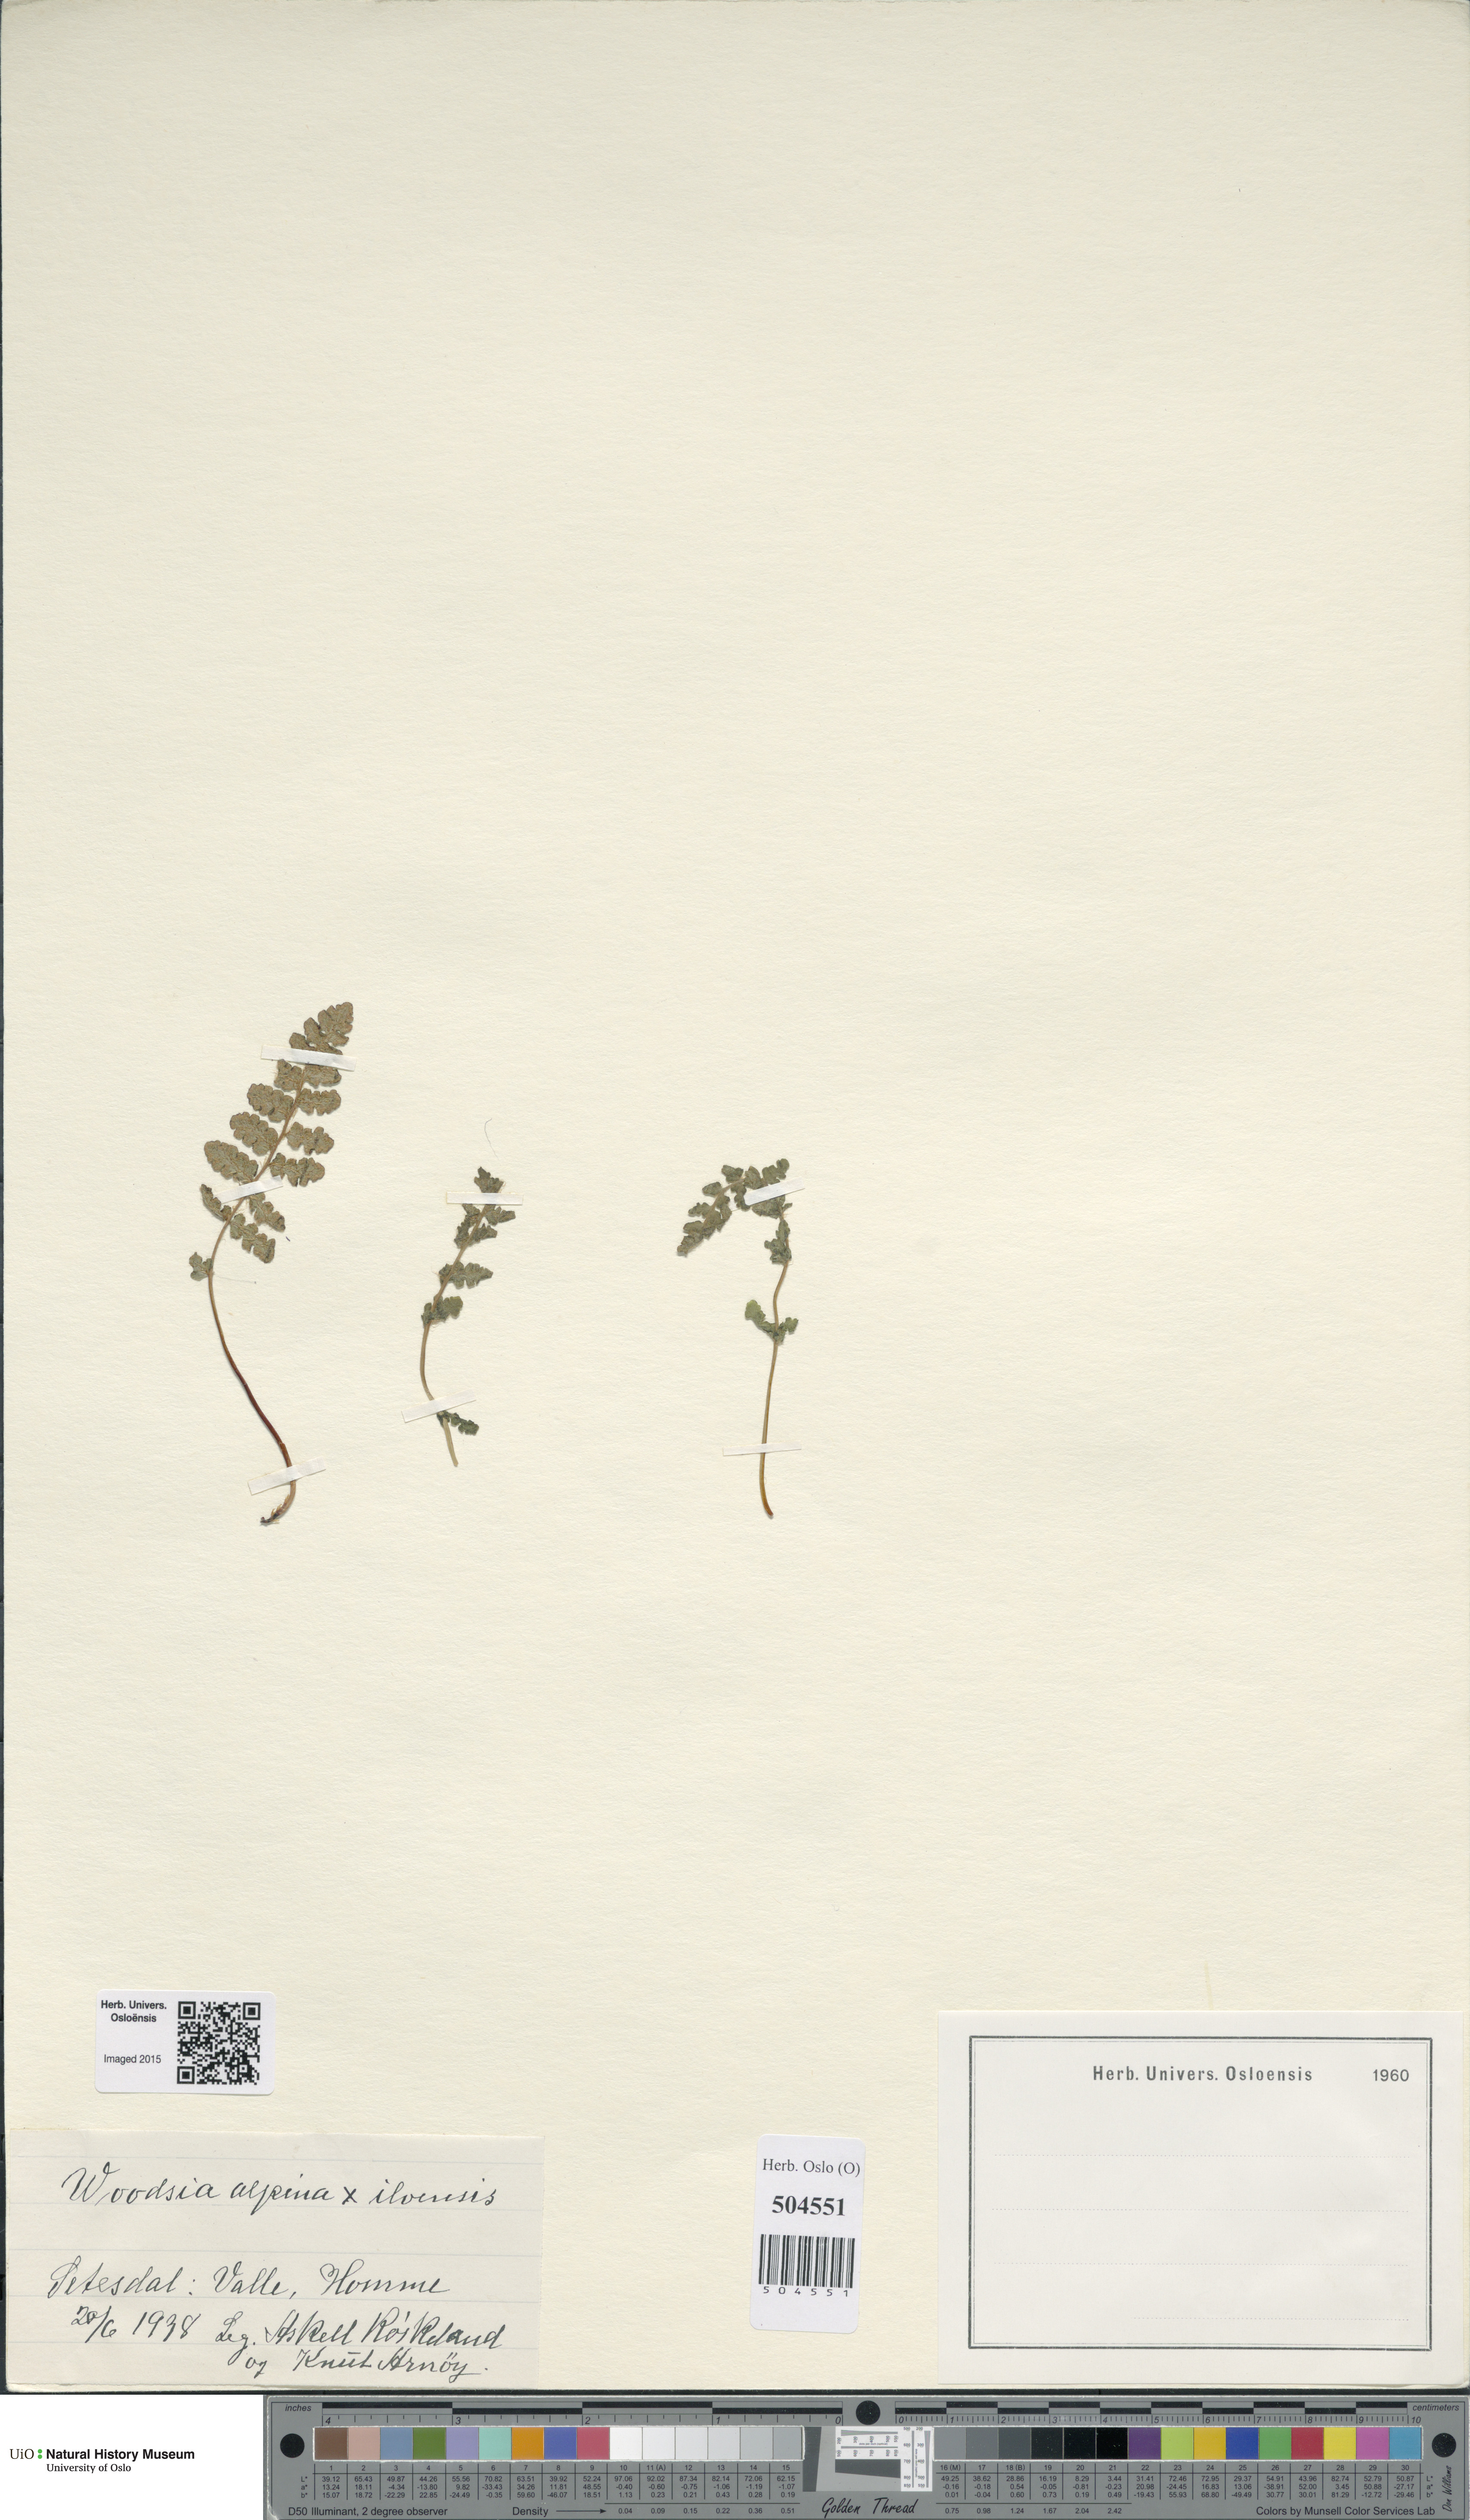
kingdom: Plantae
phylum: Tracheophyta
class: Polypodiopsida
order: Polypodiales
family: Woodsiaceae
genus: Woodsia
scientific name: Woodsia
